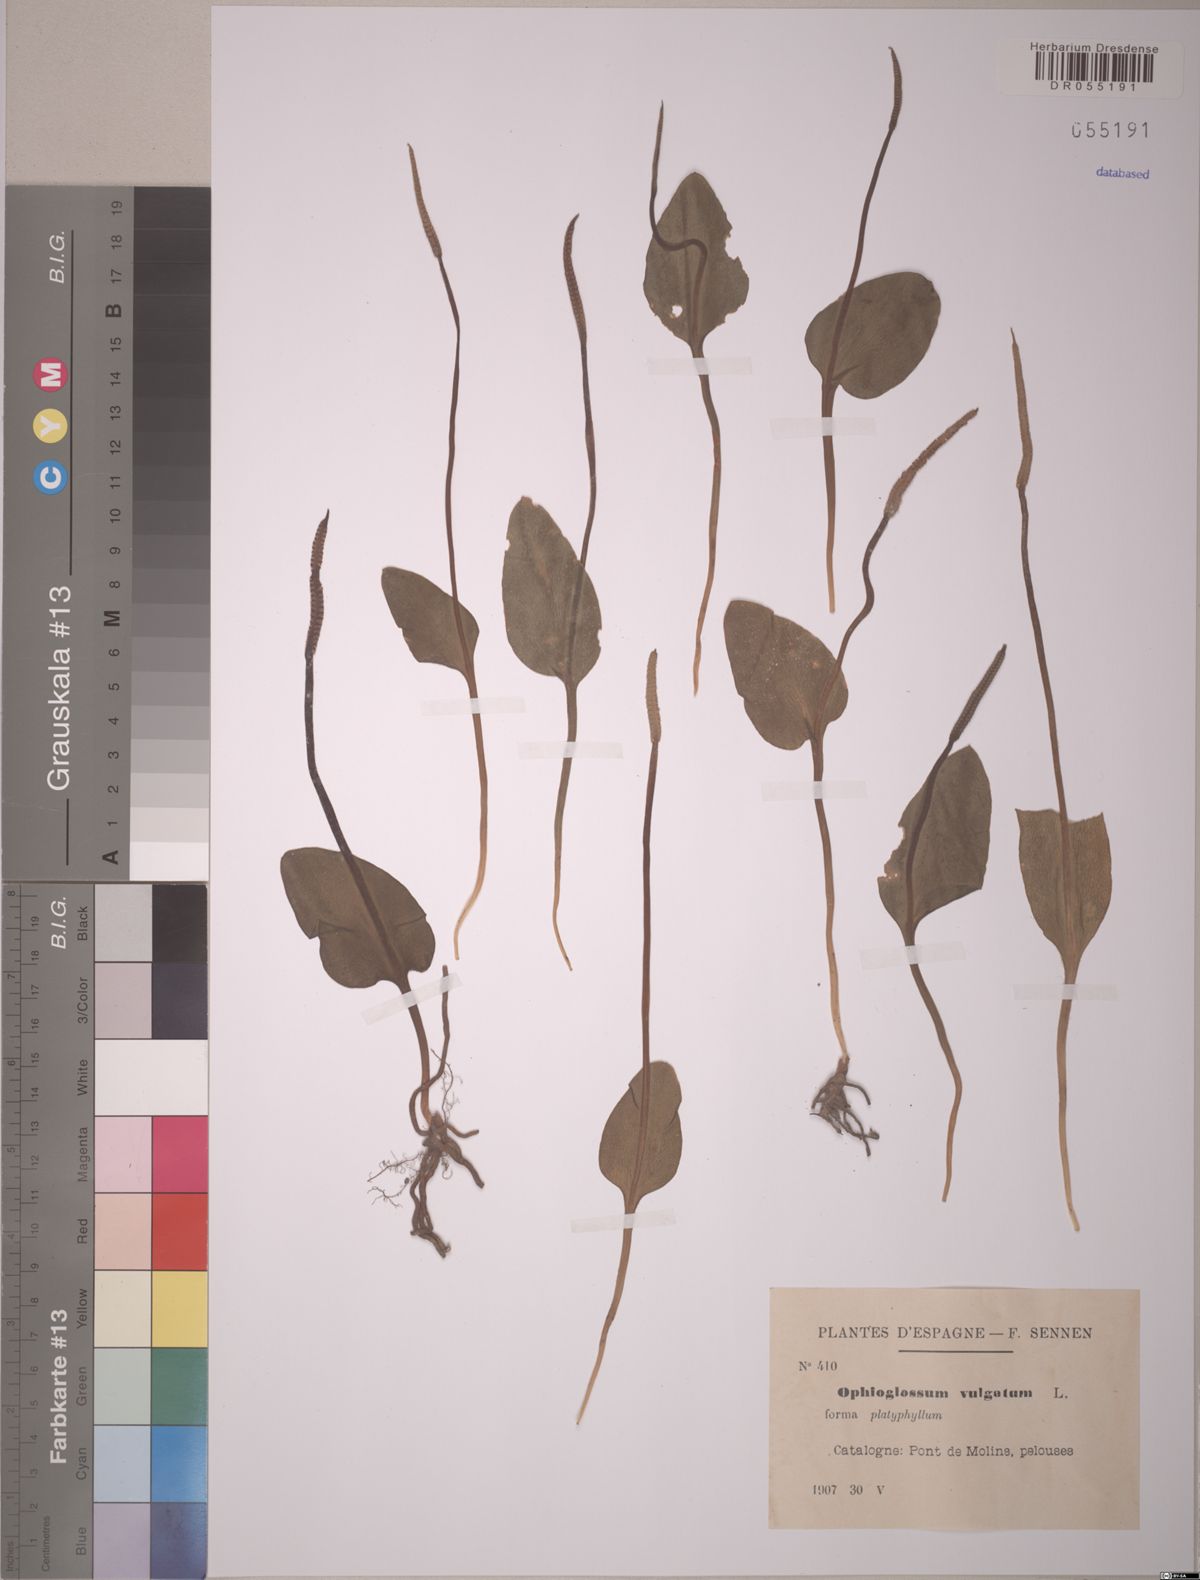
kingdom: Plantae
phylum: Tracheophyta
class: Polypodiopsida
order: Ophioglossales
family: Ophioglossaceae
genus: Ophioglossum
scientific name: Ophioglossum vulgatum
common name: Adder's-tongue
